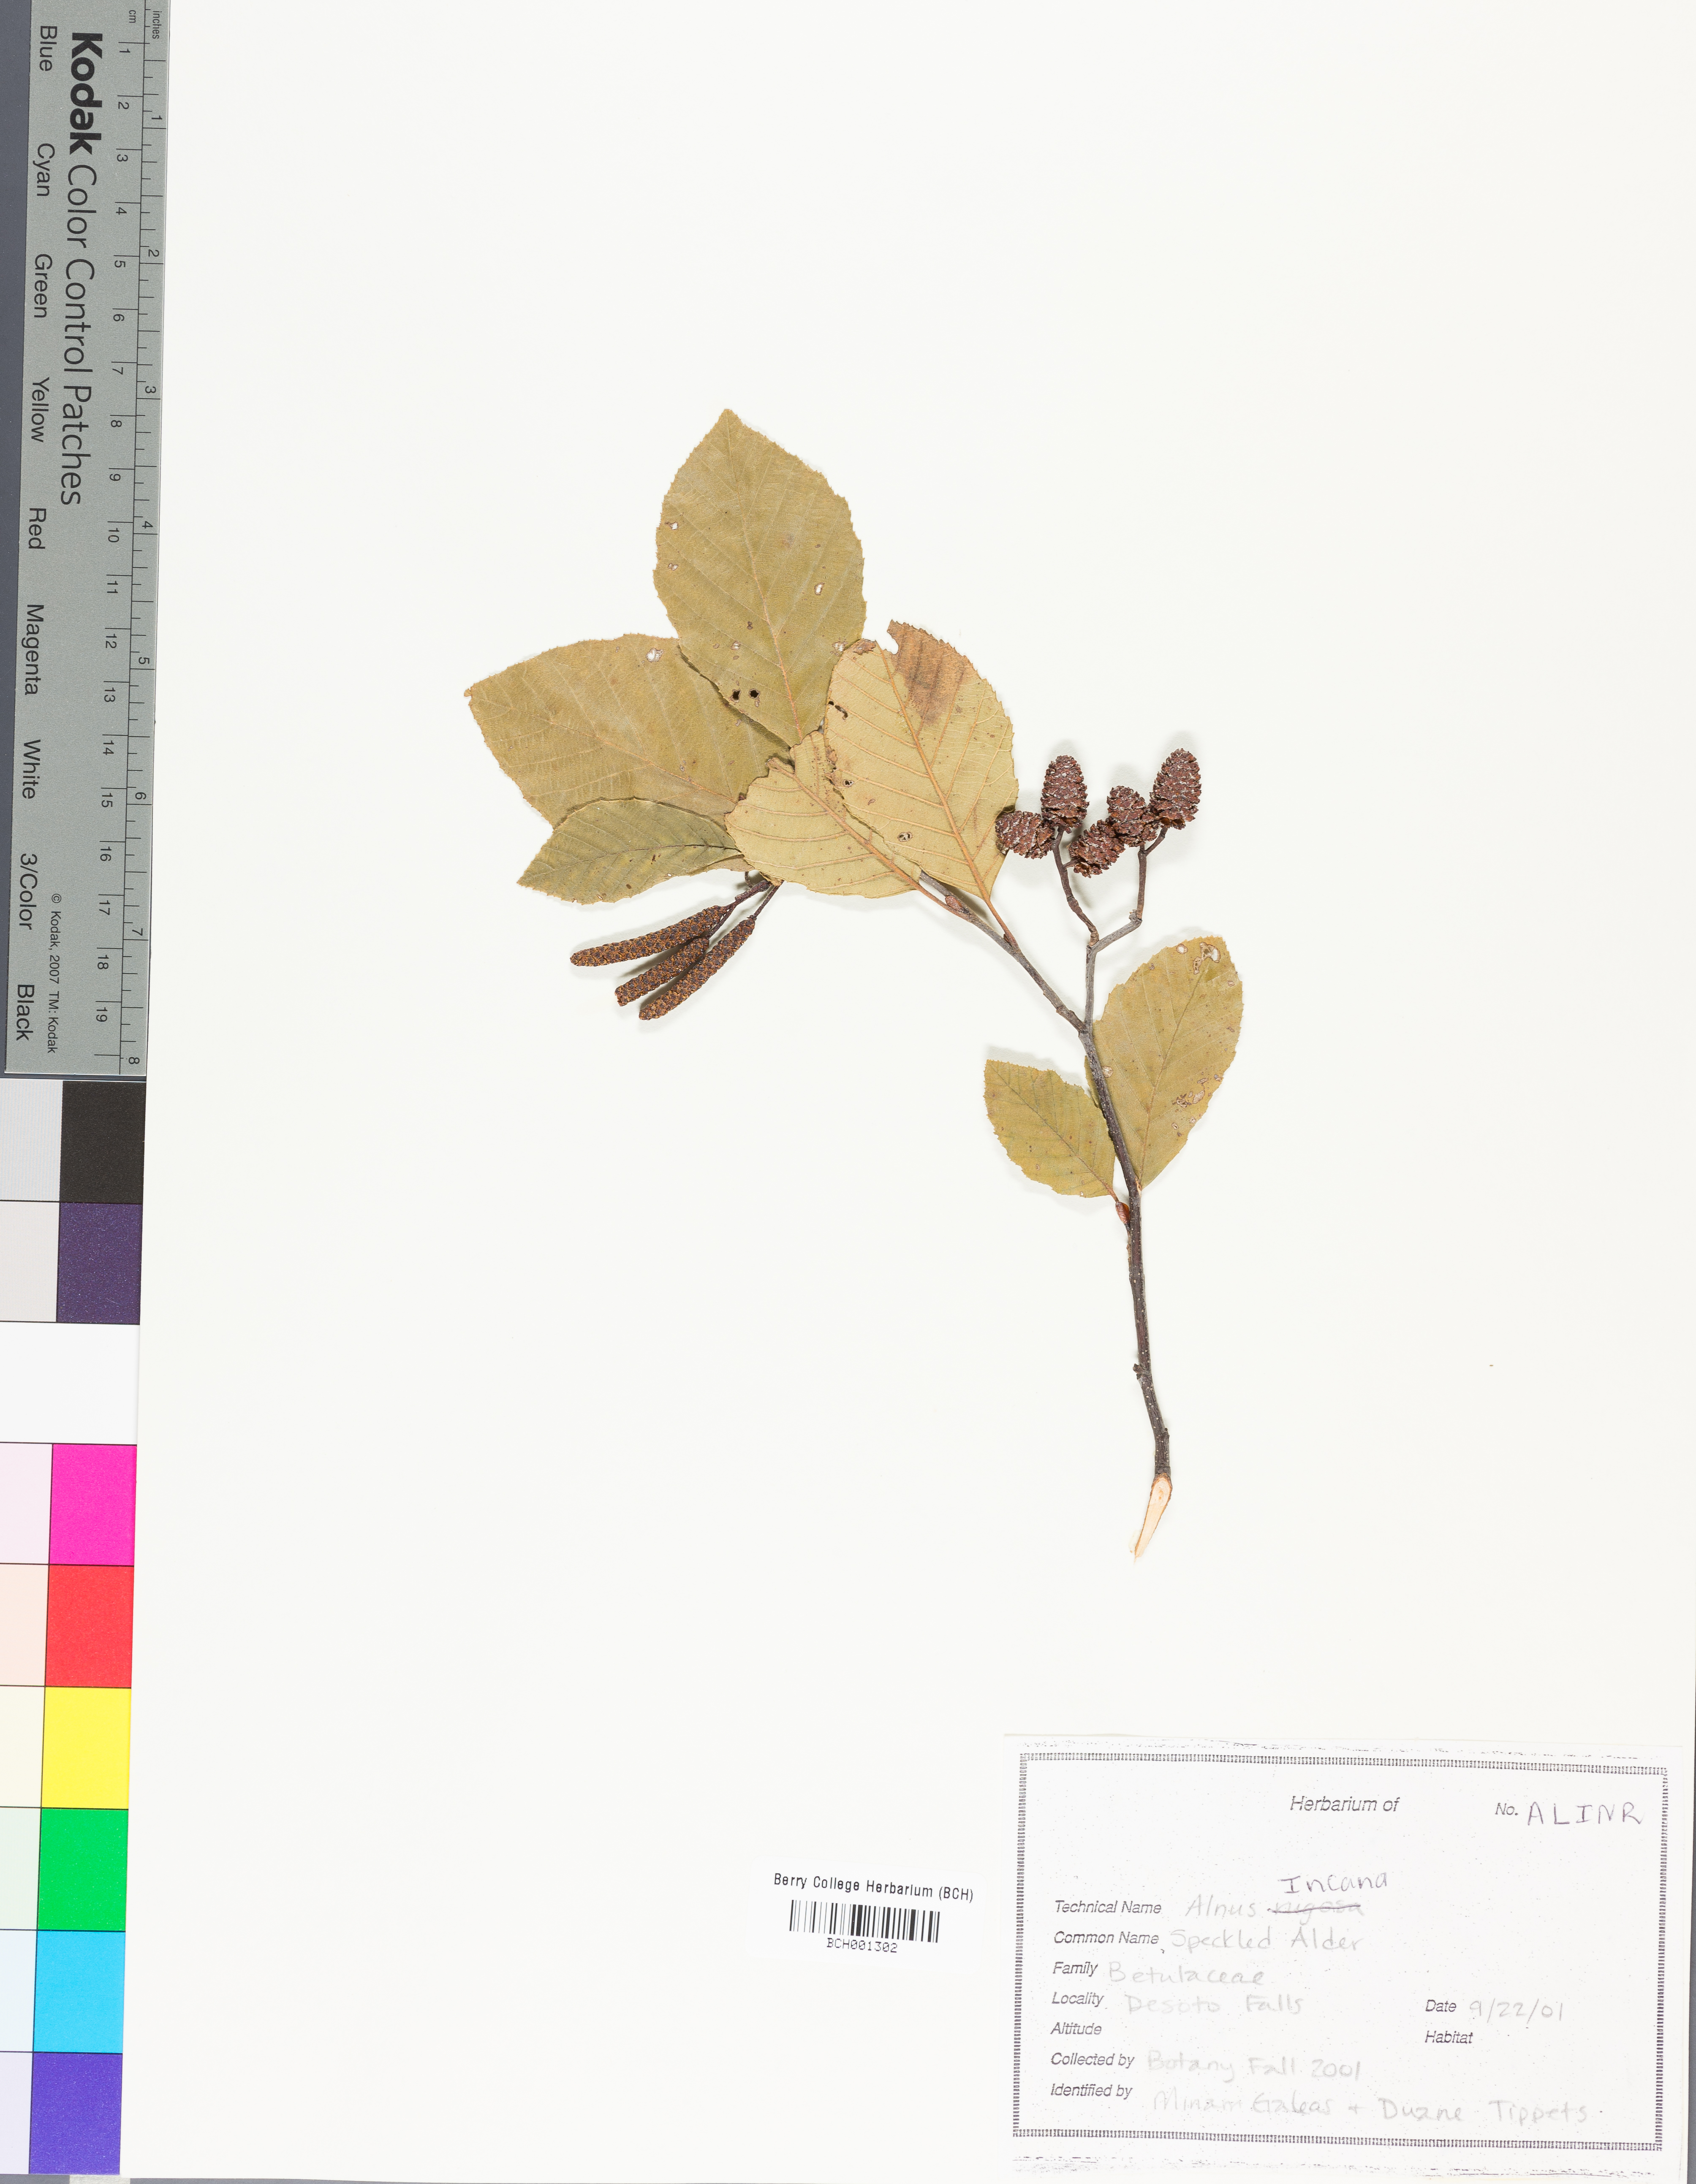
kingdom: Plantae
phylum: Tracheophyta
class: Magnoliopsida
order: Fagales
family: Betulaceae
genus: Alnus
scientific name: Alnus incana
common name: Grey alder
